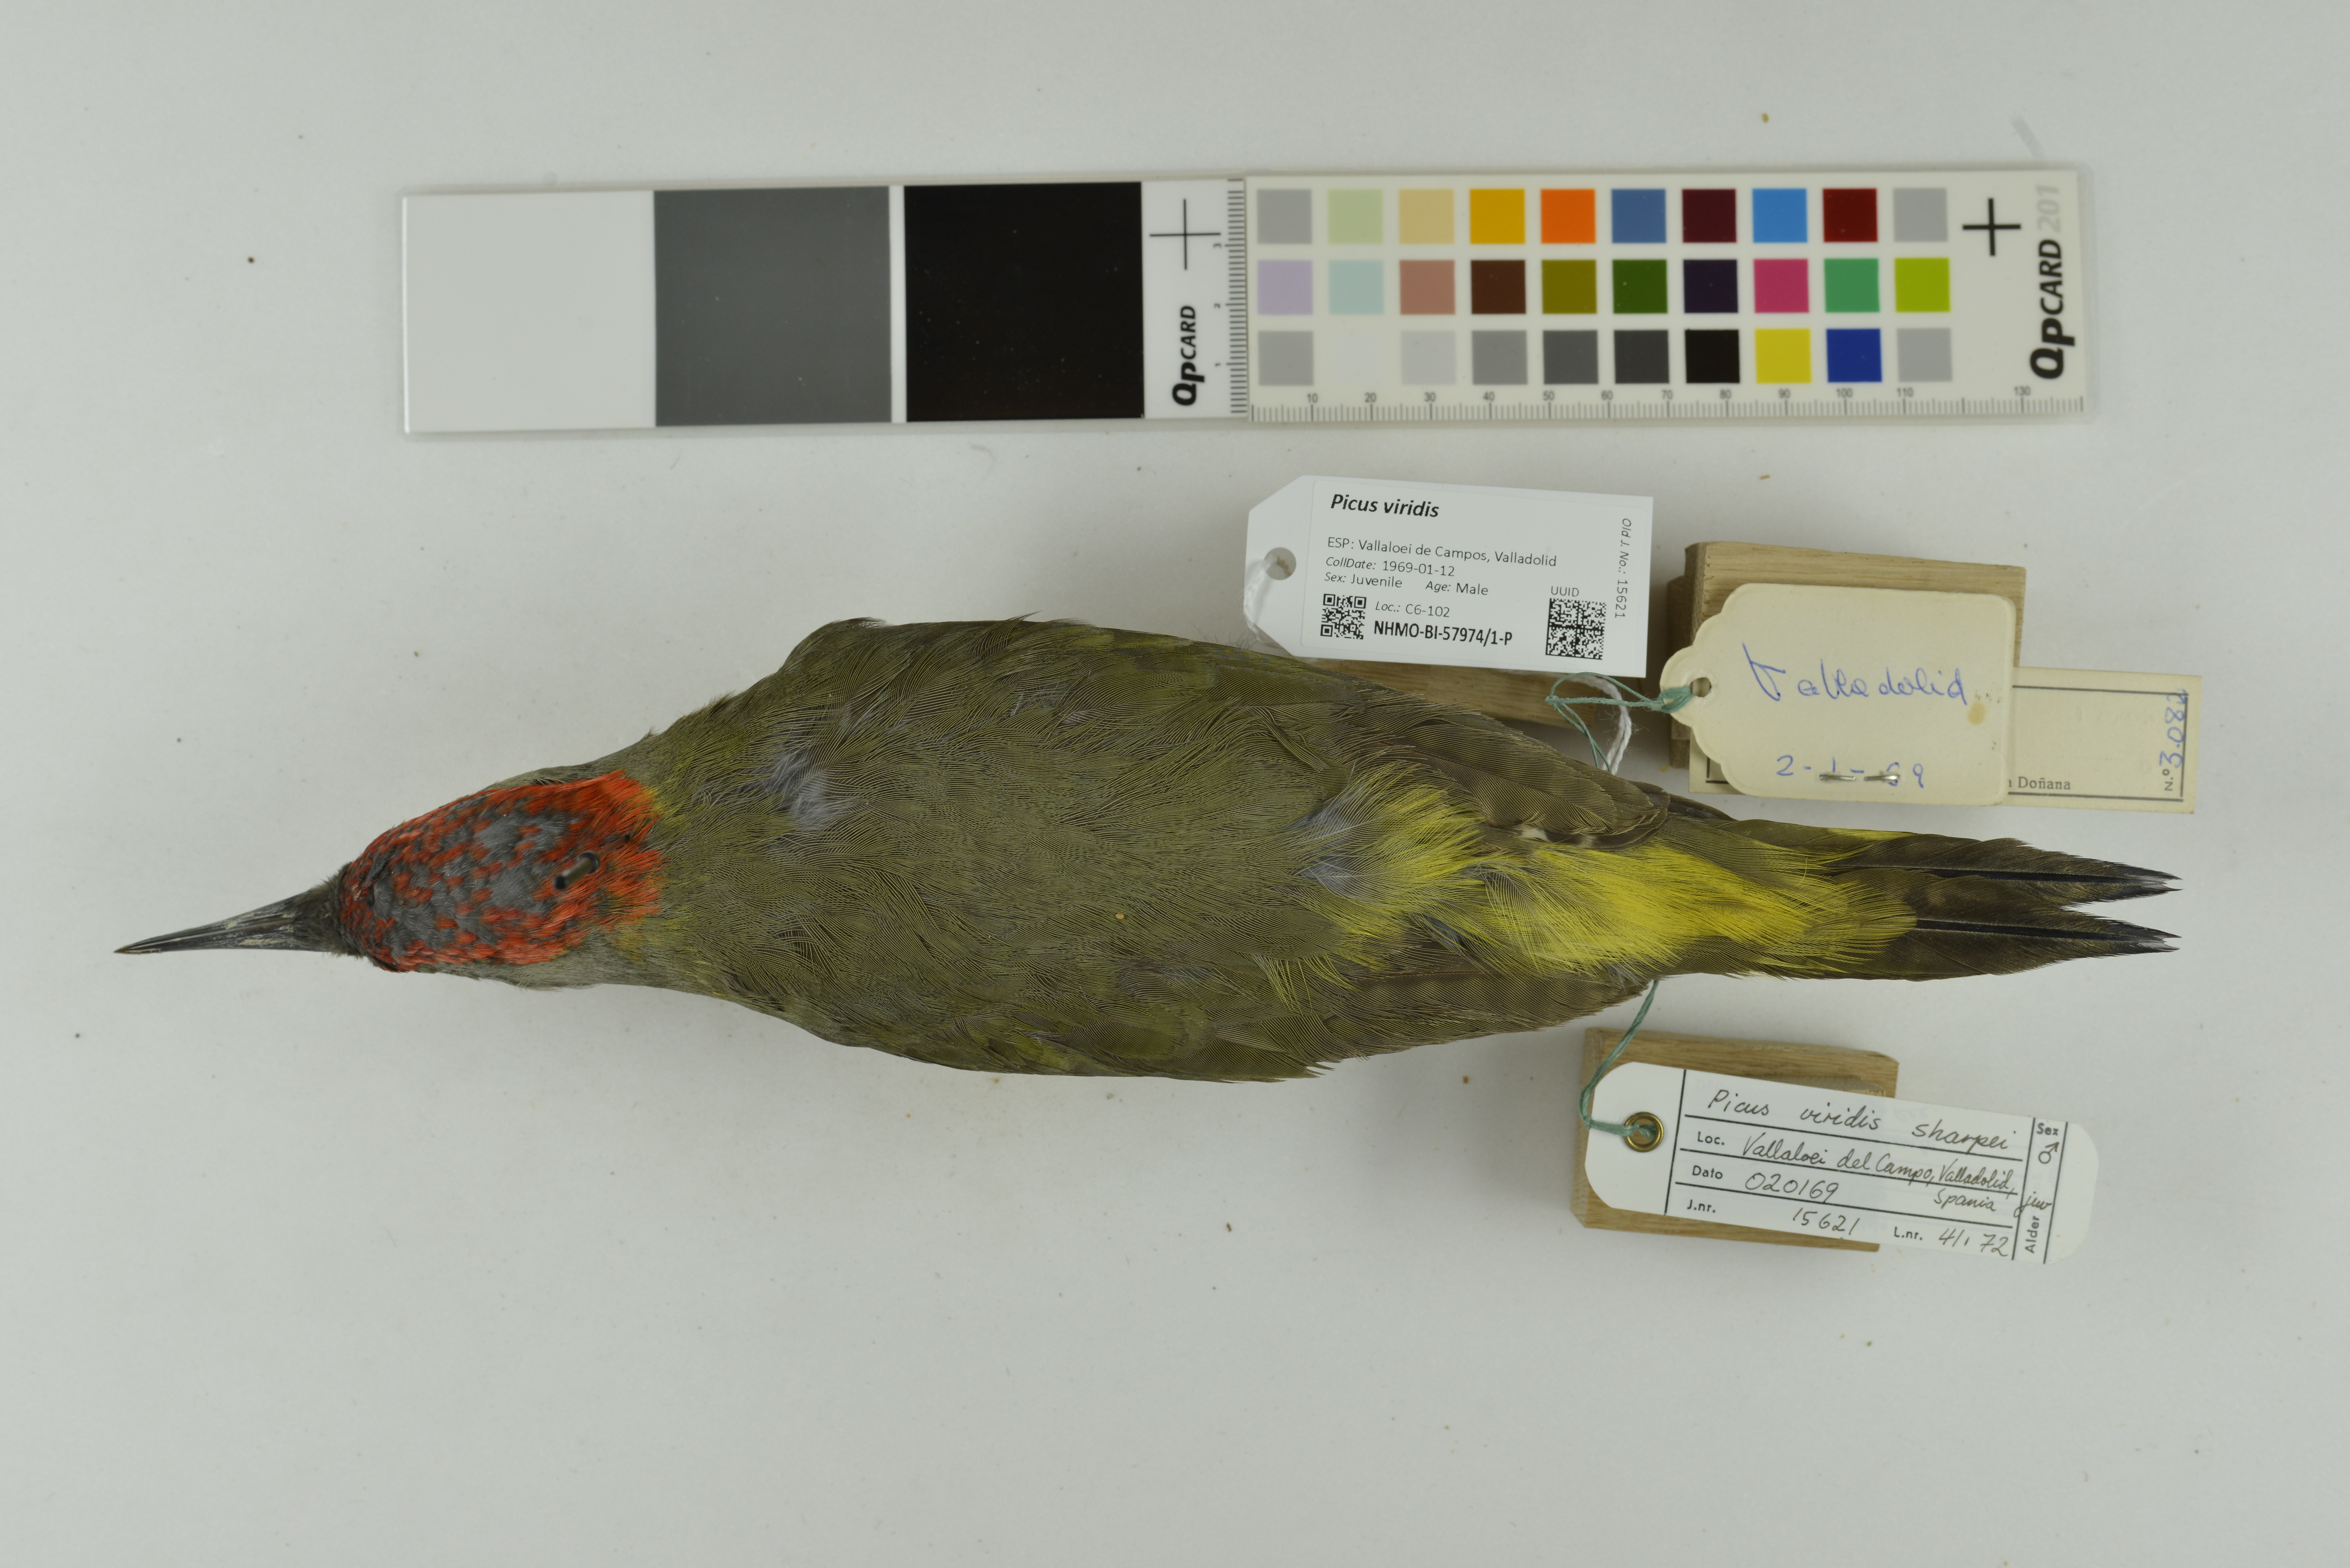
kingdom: Animalia
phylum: Chordata
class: Aves
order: Piciformes
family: Picidae
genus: Picus
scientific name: Picus viridis
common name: European green woodpecker
